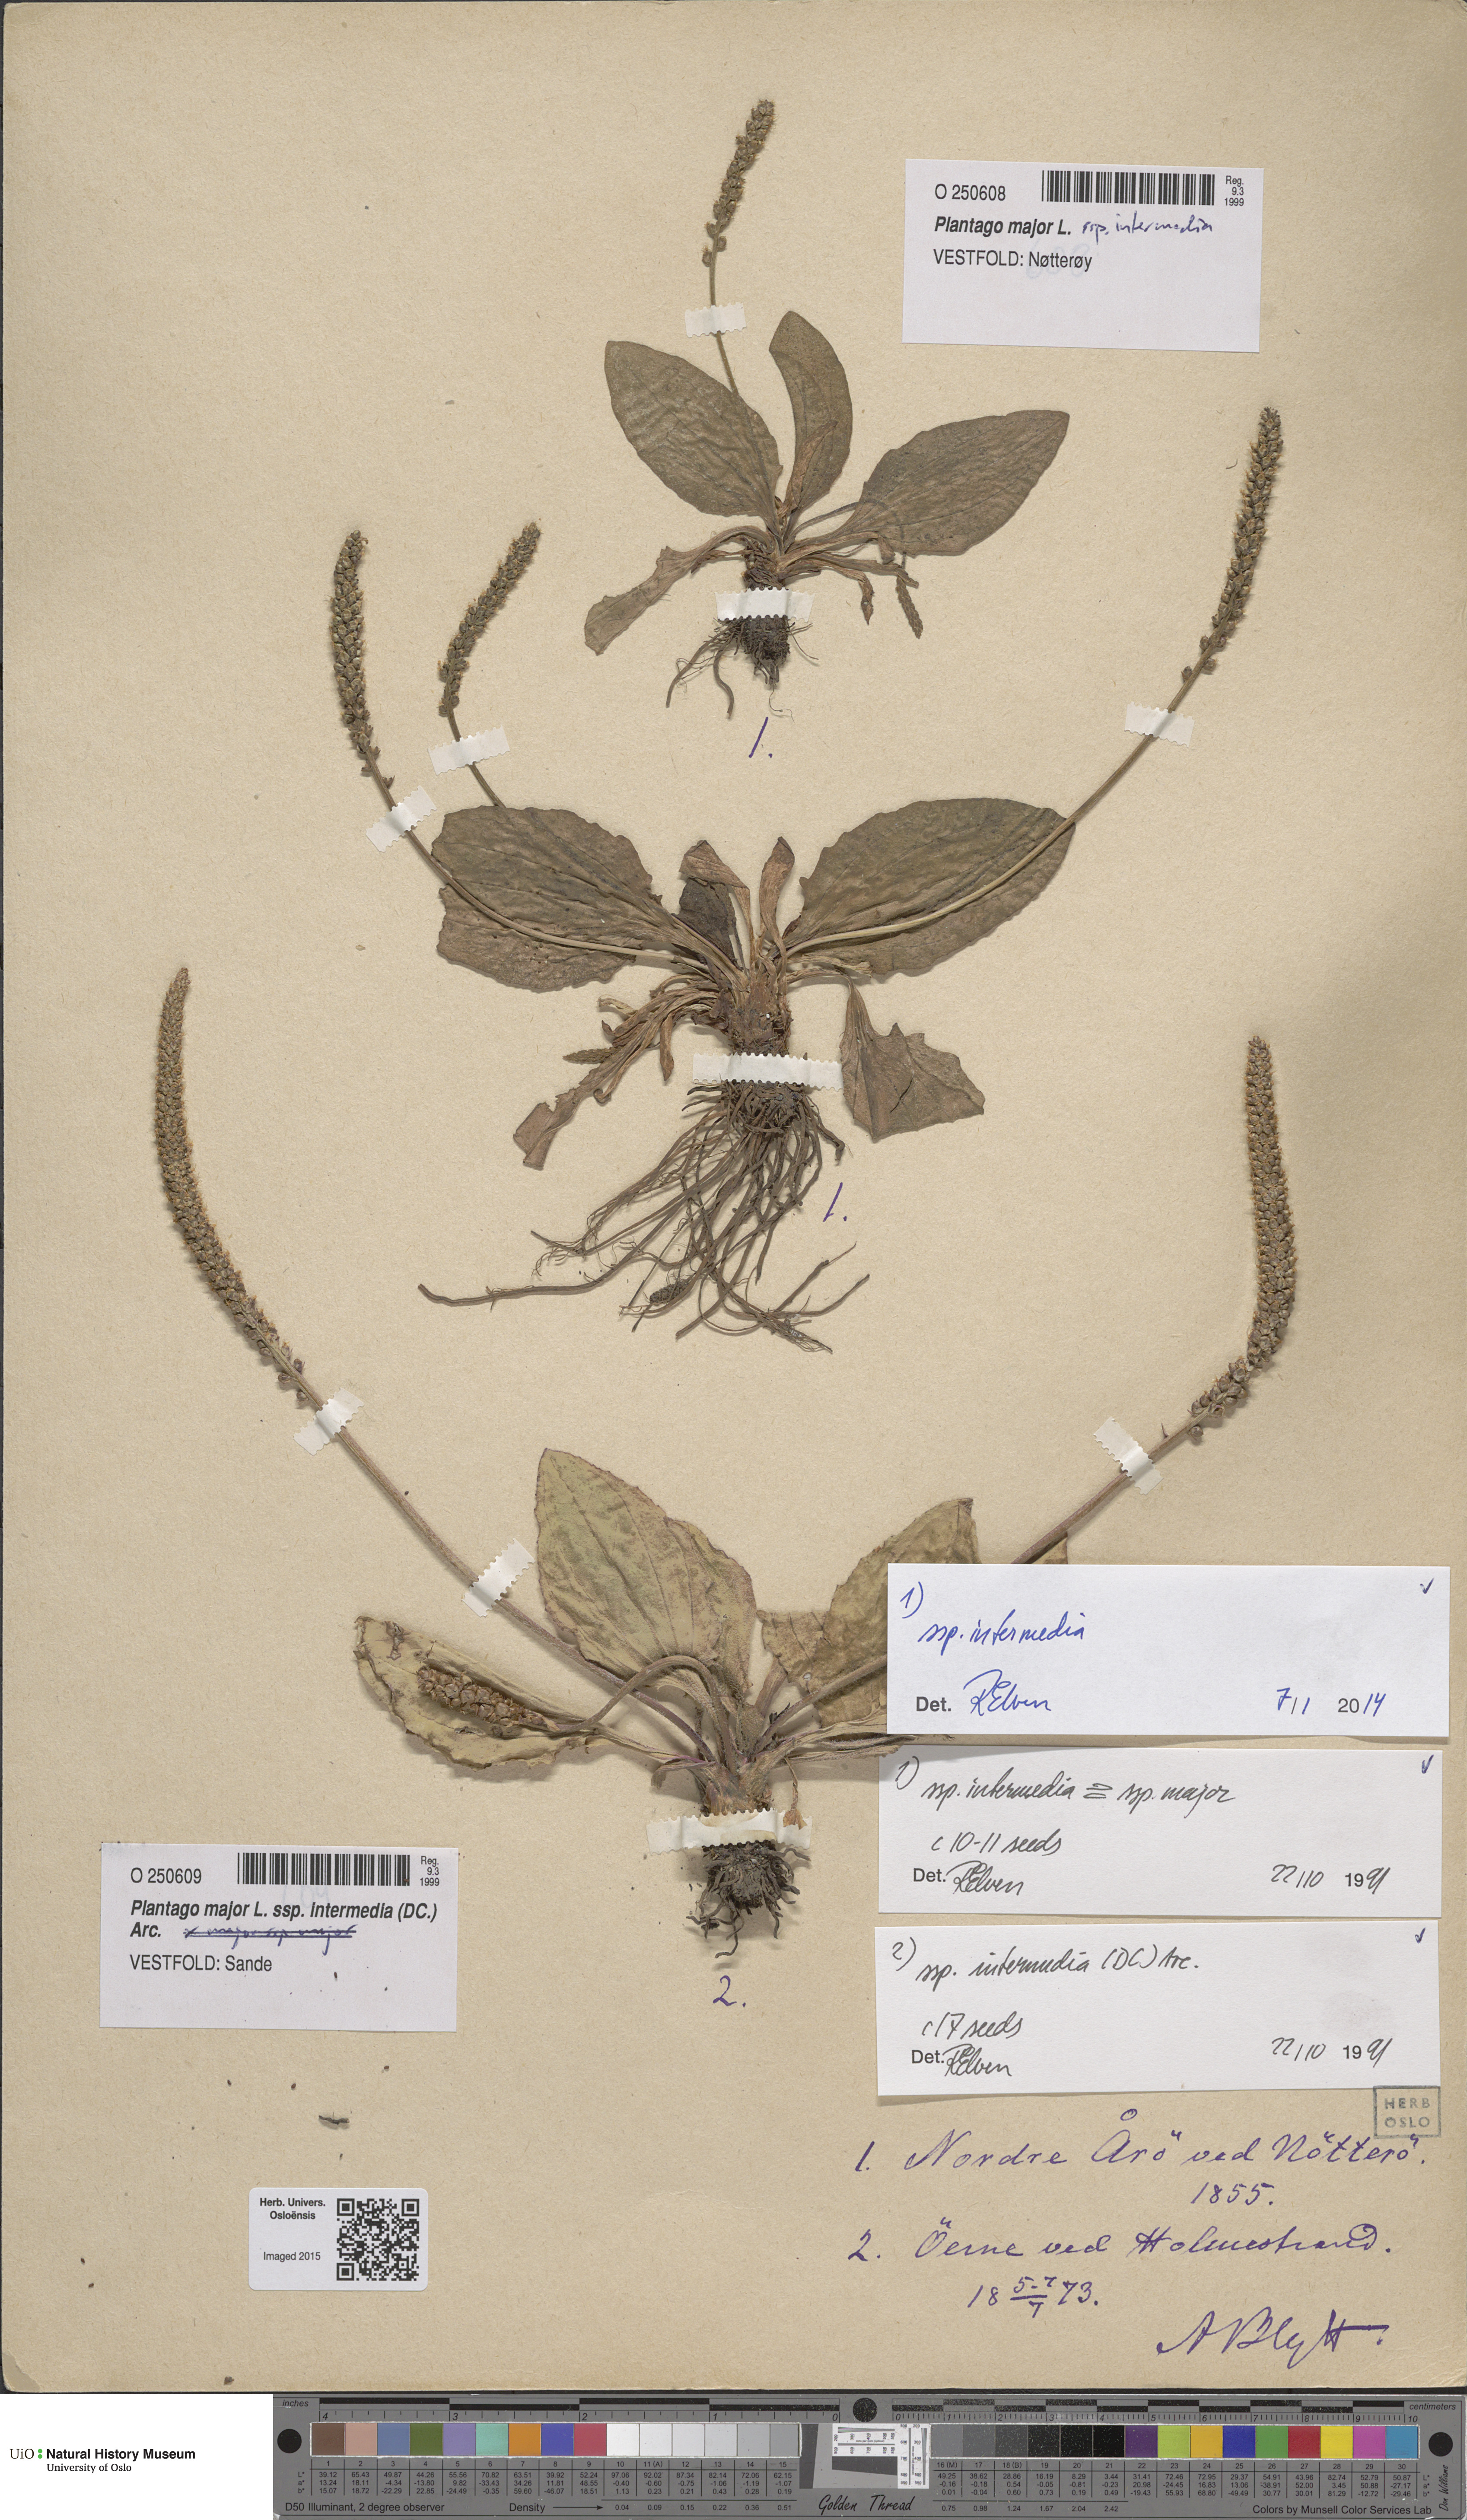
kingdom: Plantae
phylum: Tracheophyta
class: Magnoliopsida
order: Lamiales
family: Plantaginaceae
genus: Plantago
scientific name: Plantago uliginosa
